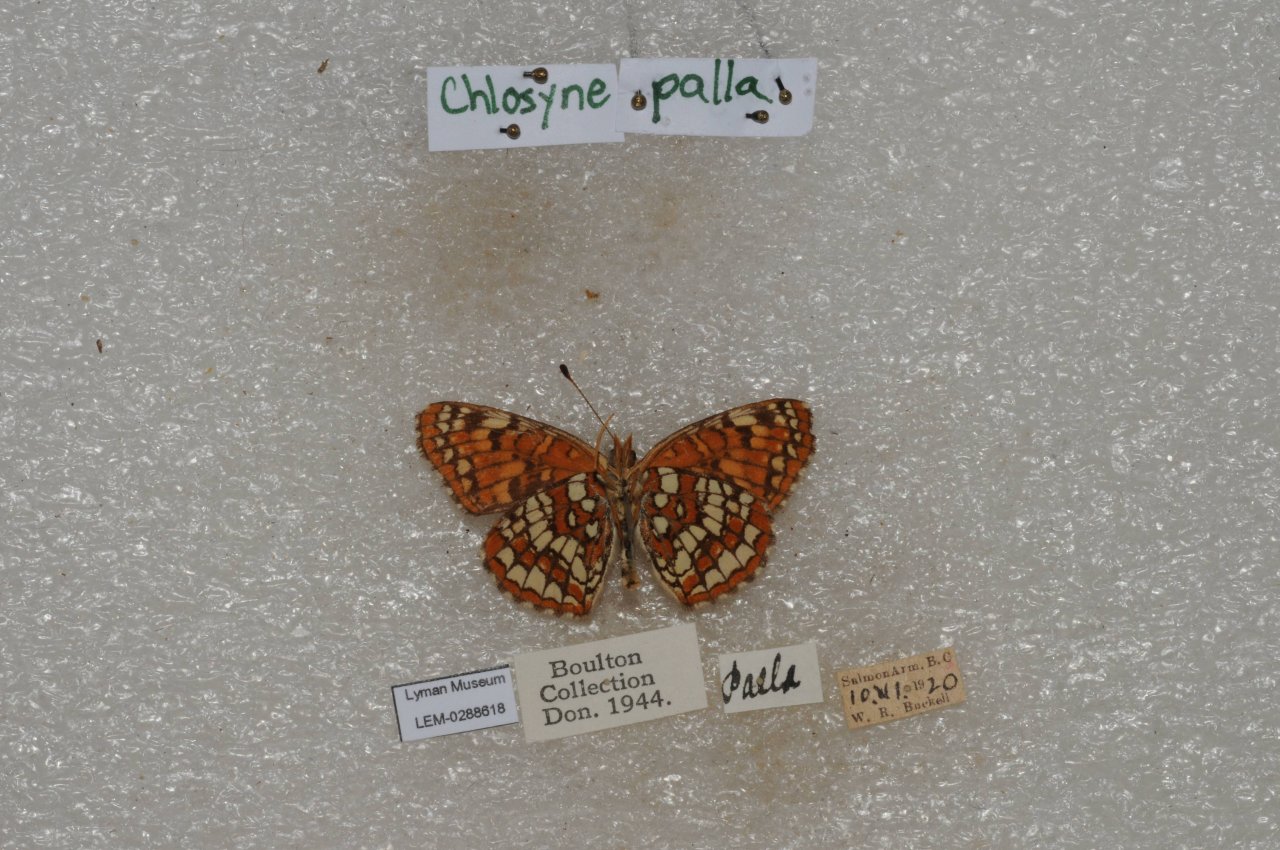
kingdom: Animalia
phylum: Arthropoda
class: Insecta
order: Lepidoptera
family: Nymphalidae
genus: Chlosyne
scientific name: Chlosyne palla
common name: Northern Checkerspot
